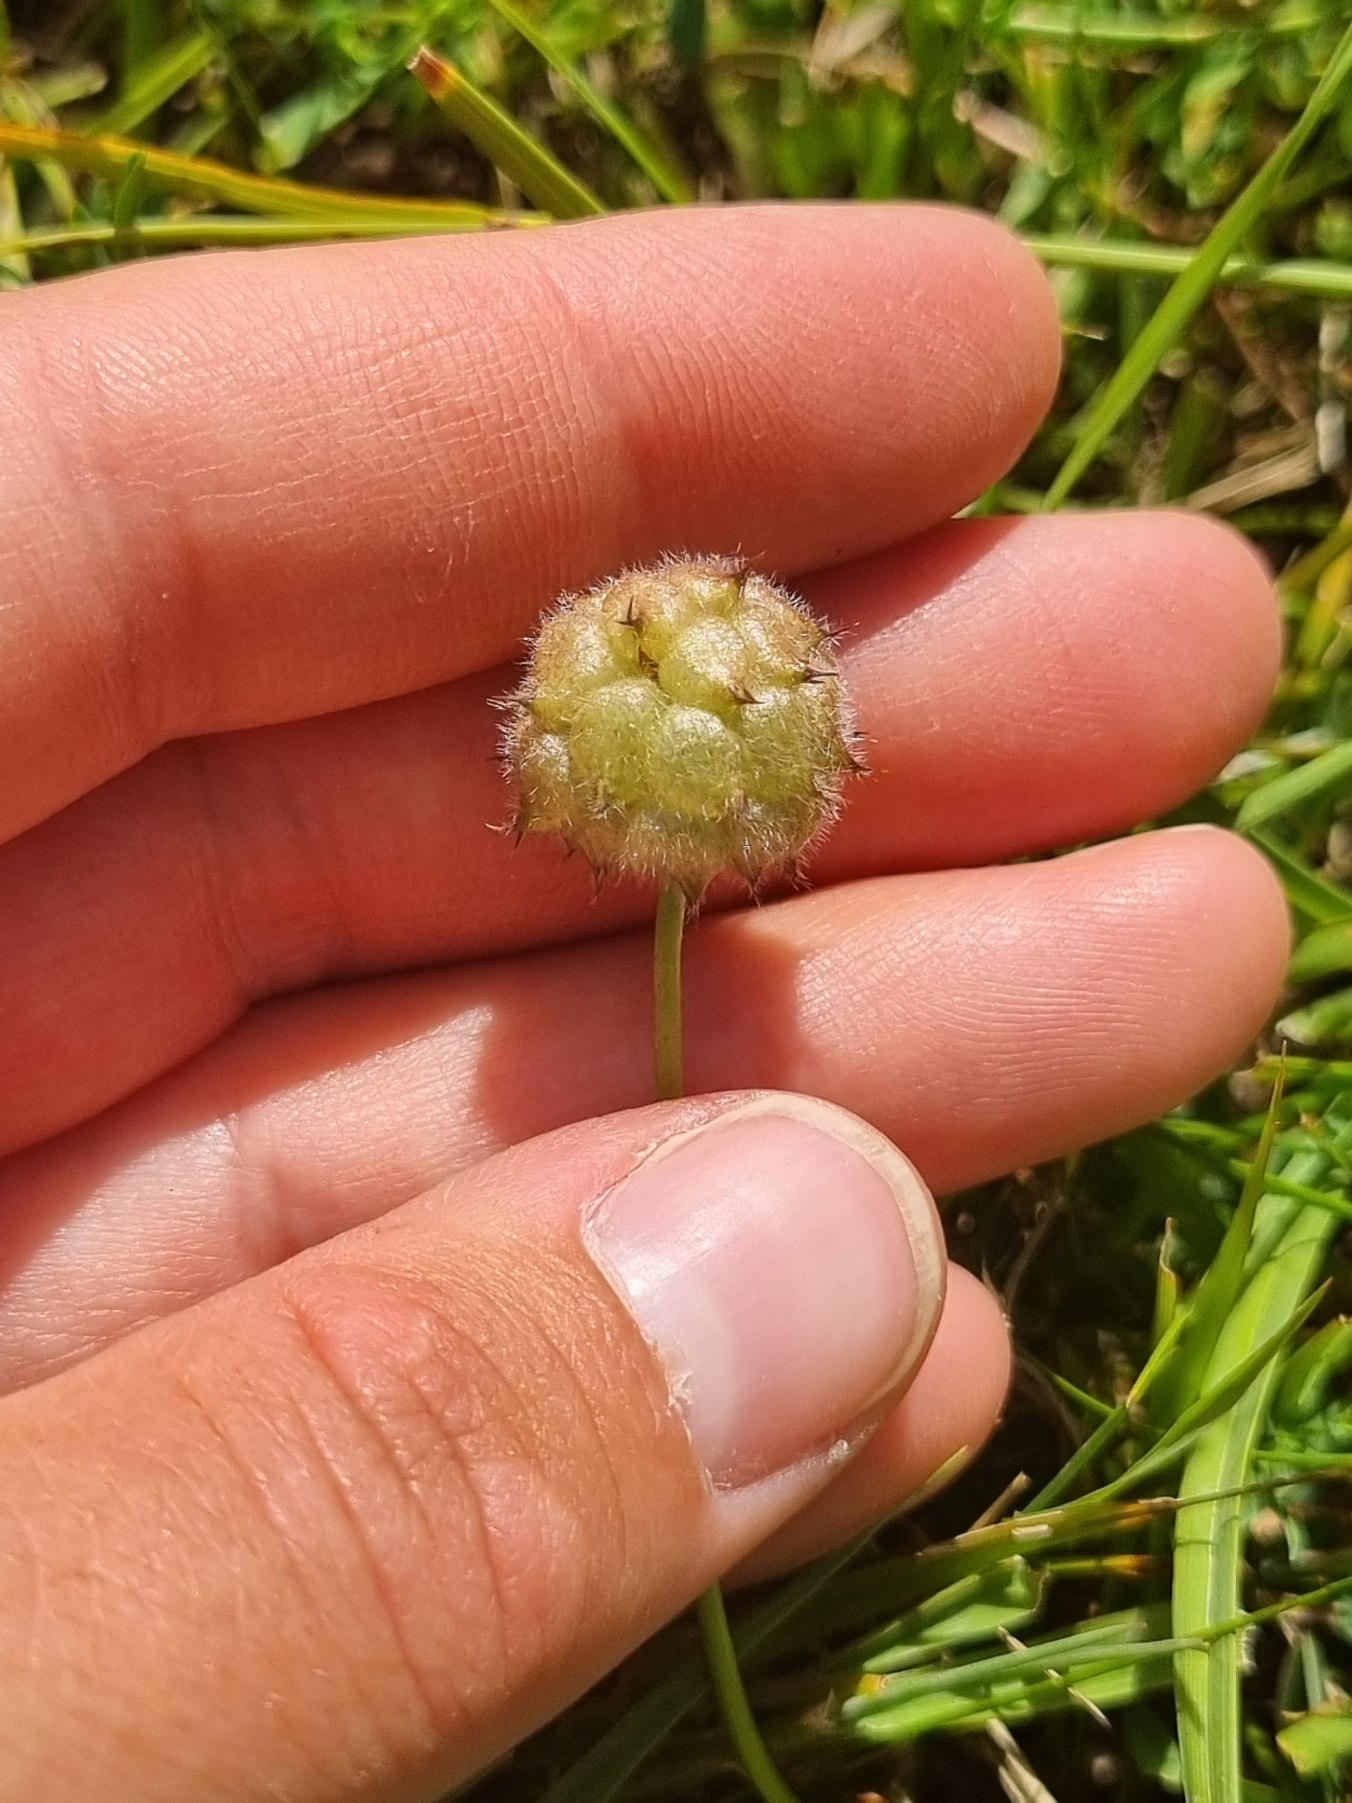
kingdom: Plantae
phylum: Tracheophyta
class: Magnoliopsida
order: Fabales
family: Fabaceae
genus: Trifolium
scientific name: Trifolium fragiferum
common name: Jordbær-kløver
